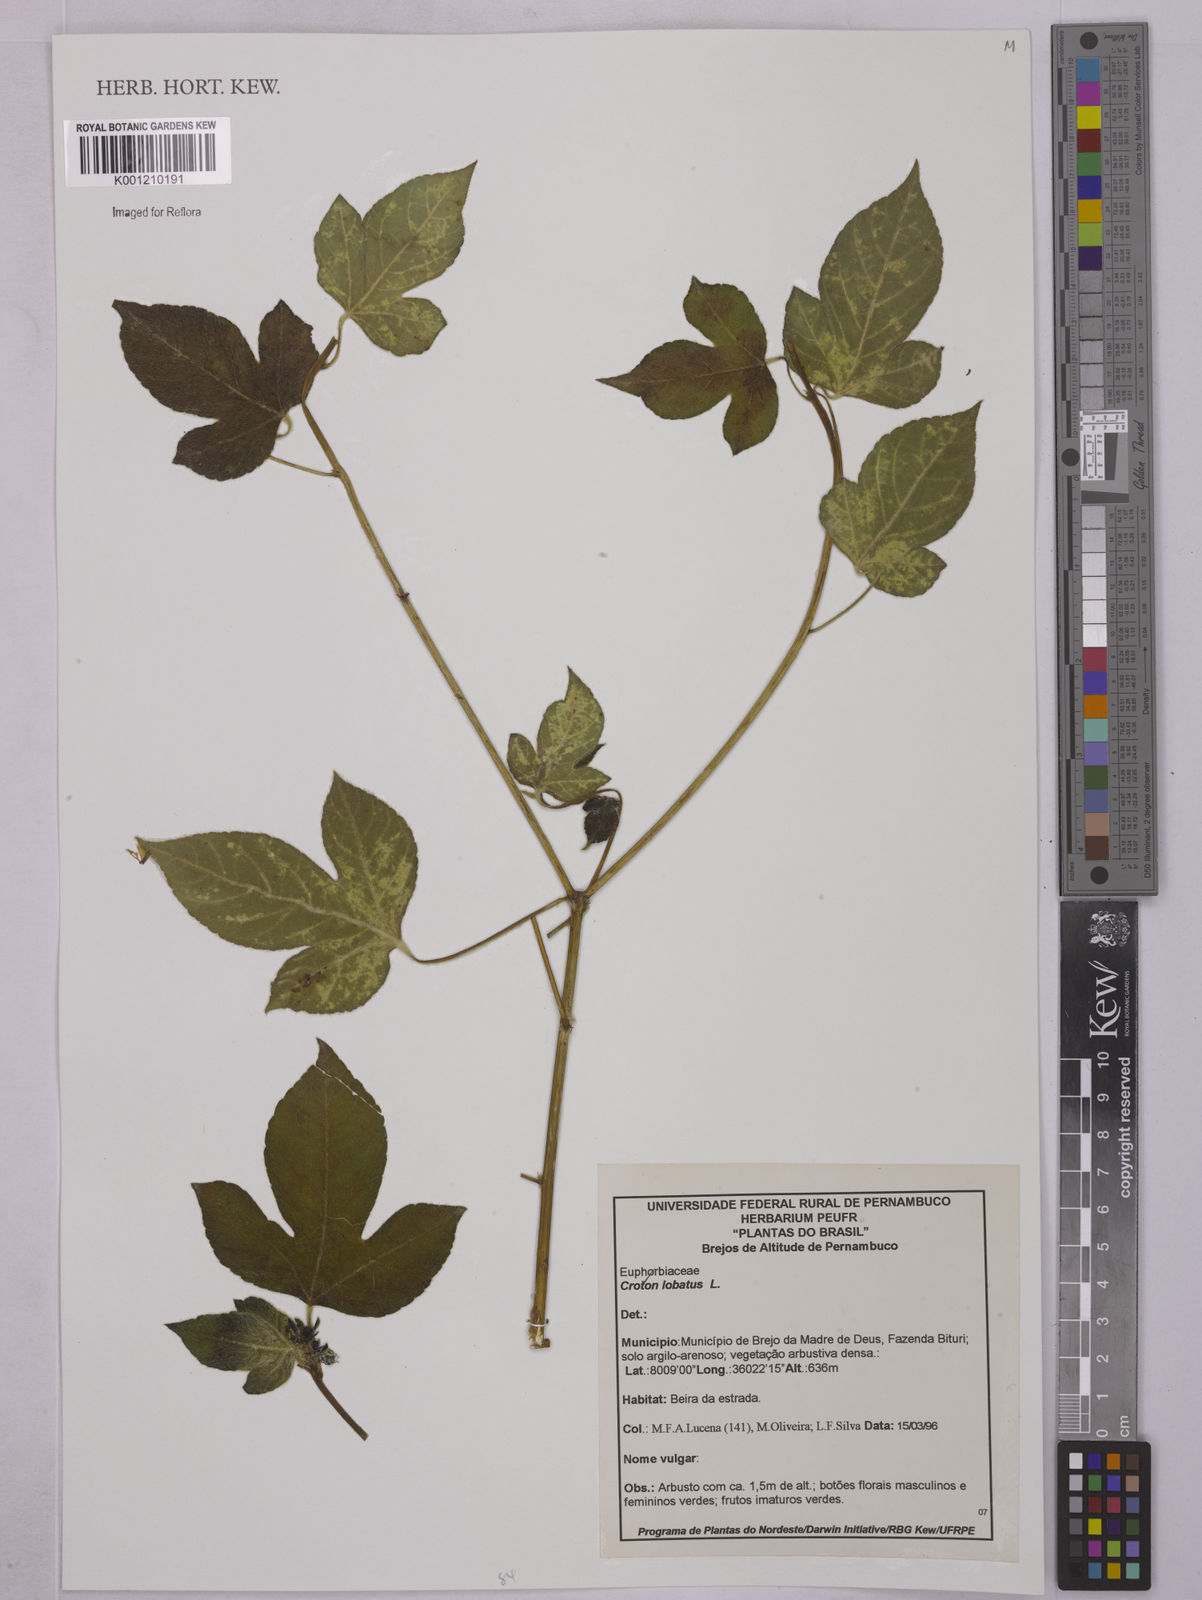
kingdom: Plantae
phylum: Tracheophyta
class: Magnoliopsida
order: Malpighiales
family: Euphorbiaceae
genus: Astraea
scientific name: Astraea lobata
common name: Lobed croton
